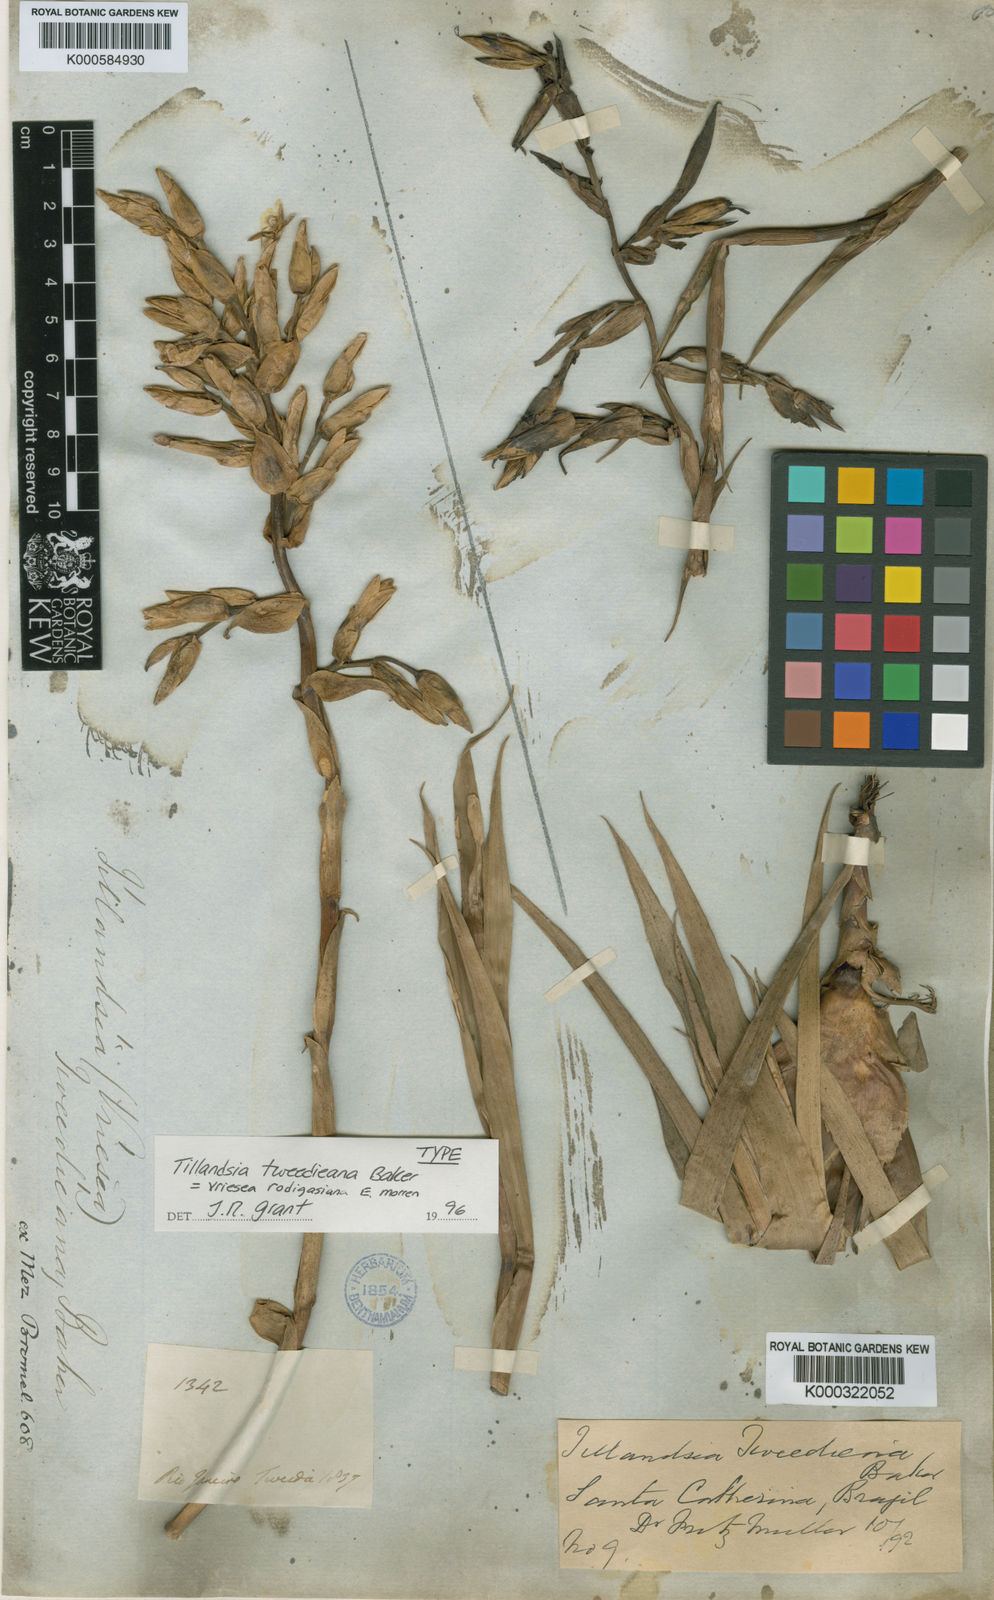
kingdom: Plantae
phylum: Tracheophyta
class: Liliopsida
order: Poales
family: Bromeliaceae
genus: Vriesea
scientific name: Vriesea rodigasiana
